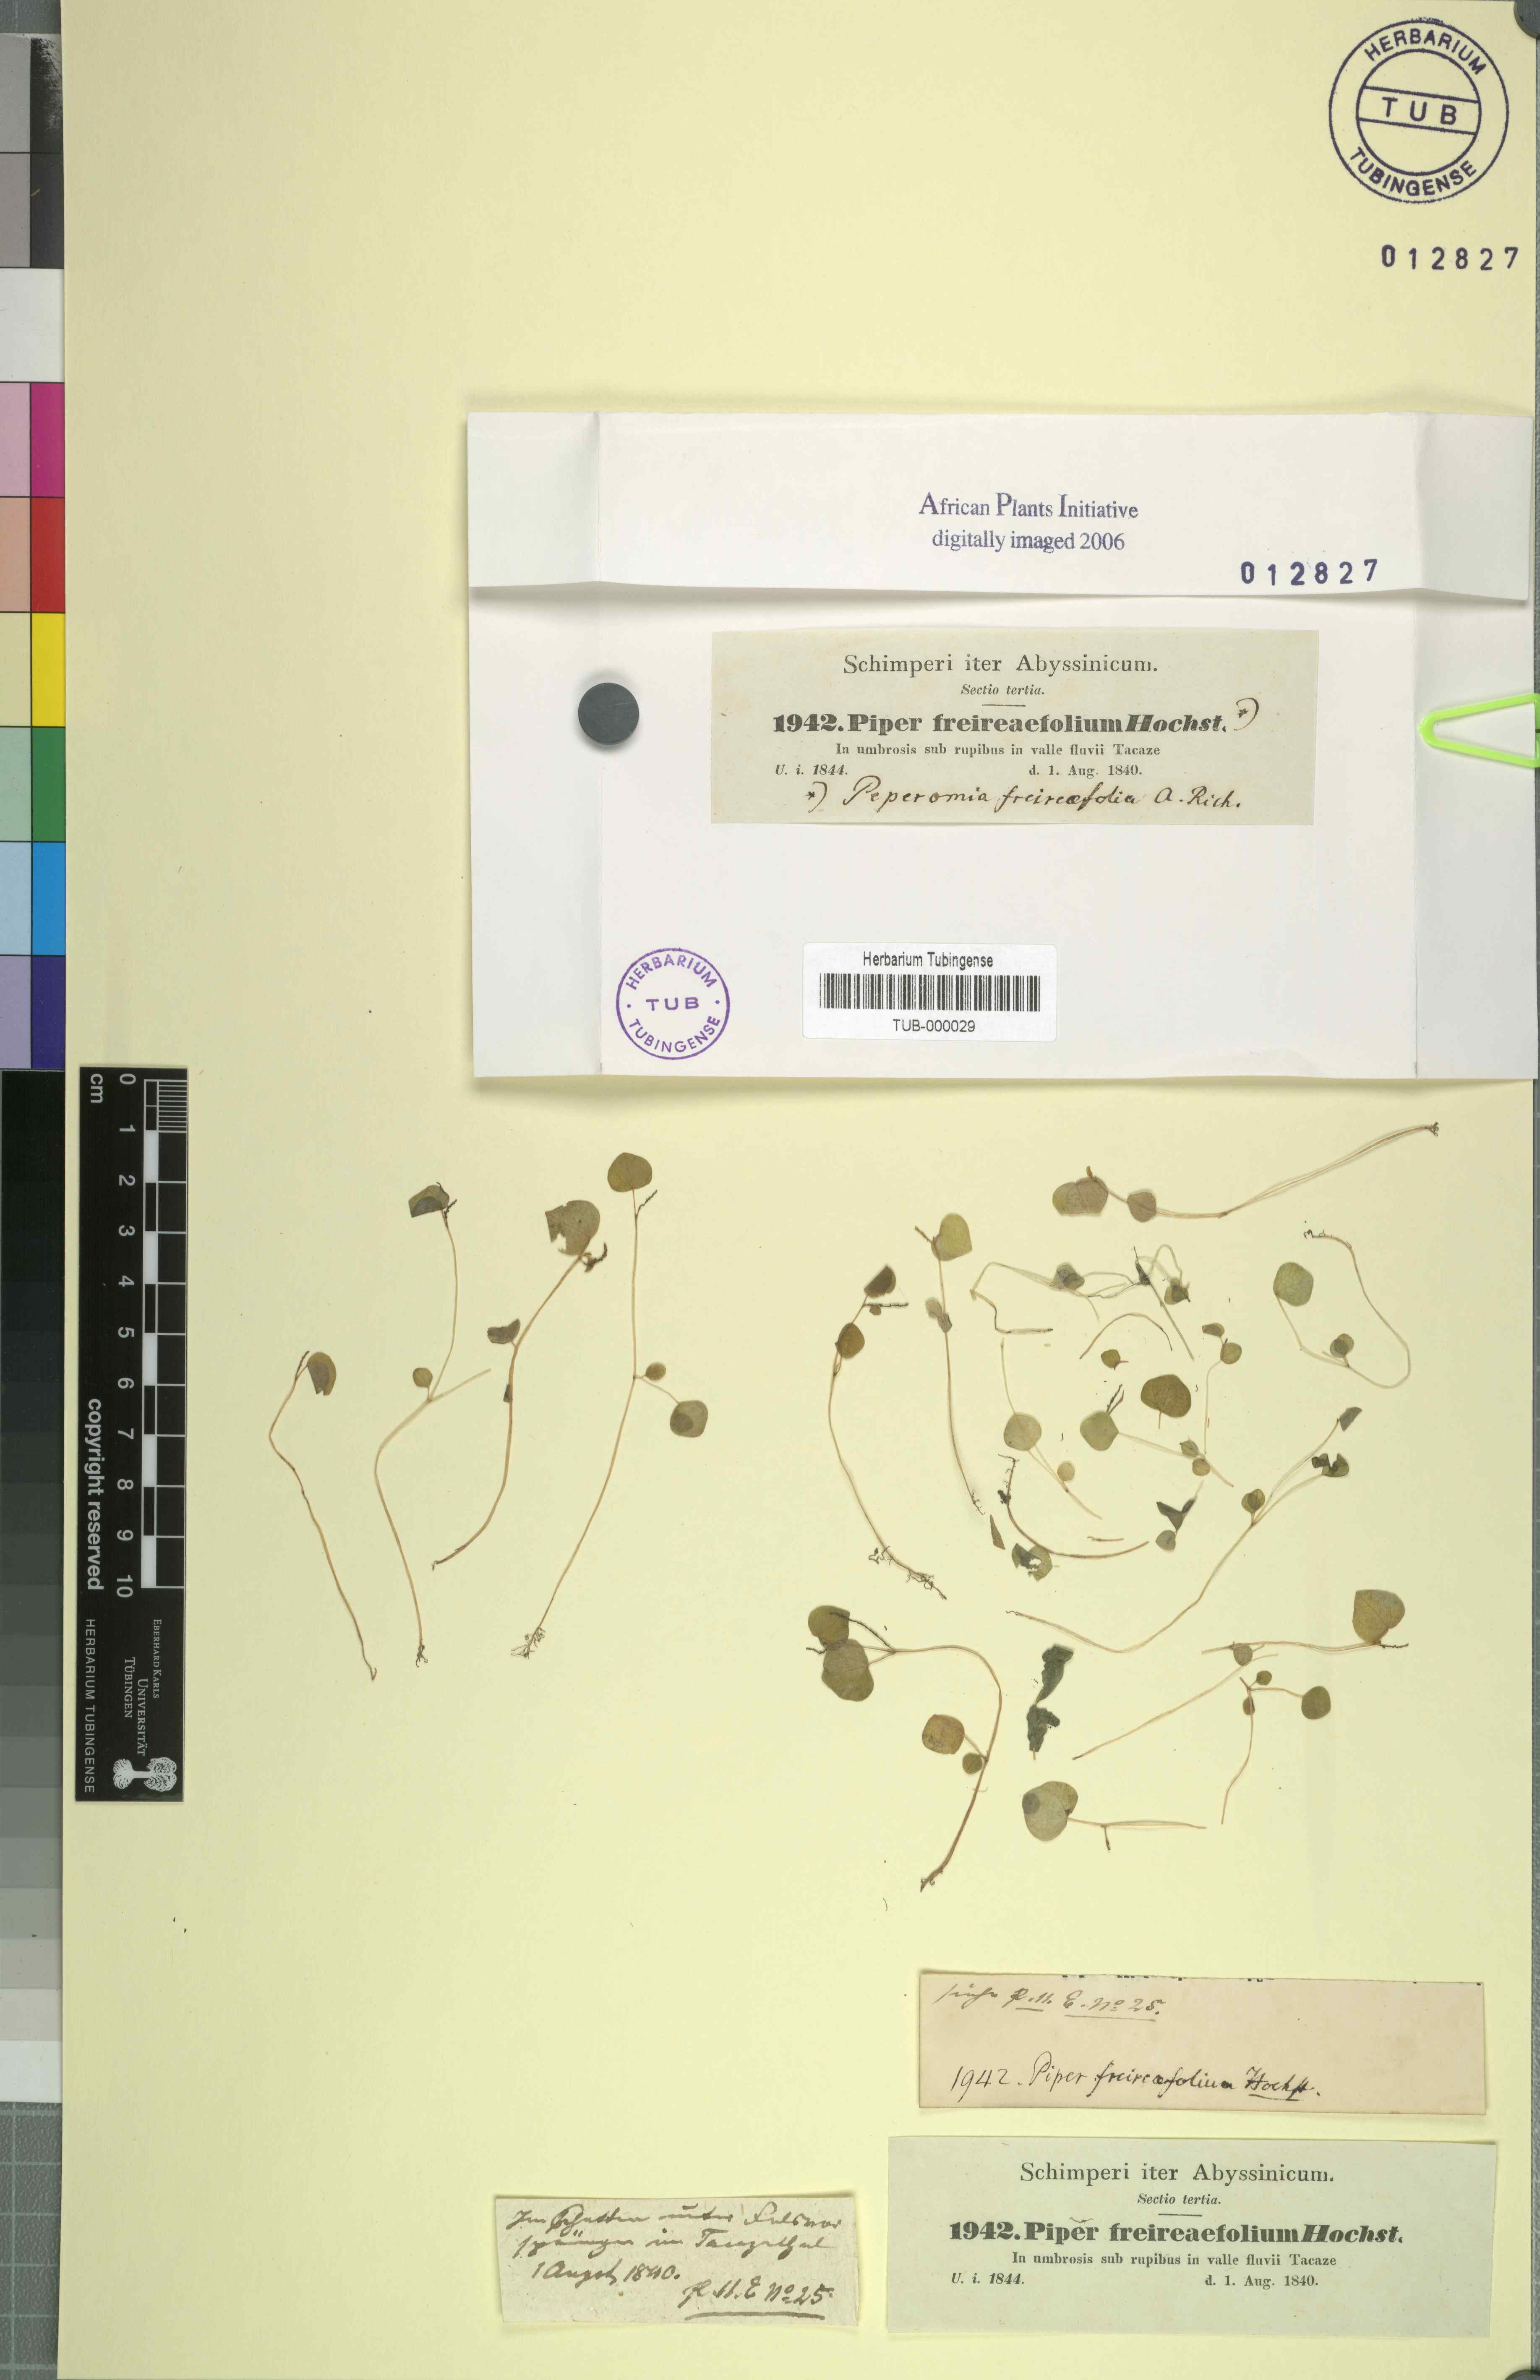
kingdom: Plantae
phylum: Tracheophyta
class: Magnoliopsida
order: Piperales
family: Piperaceae
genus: Peperomia
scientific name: Peperomia pellucida
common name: Man to man
